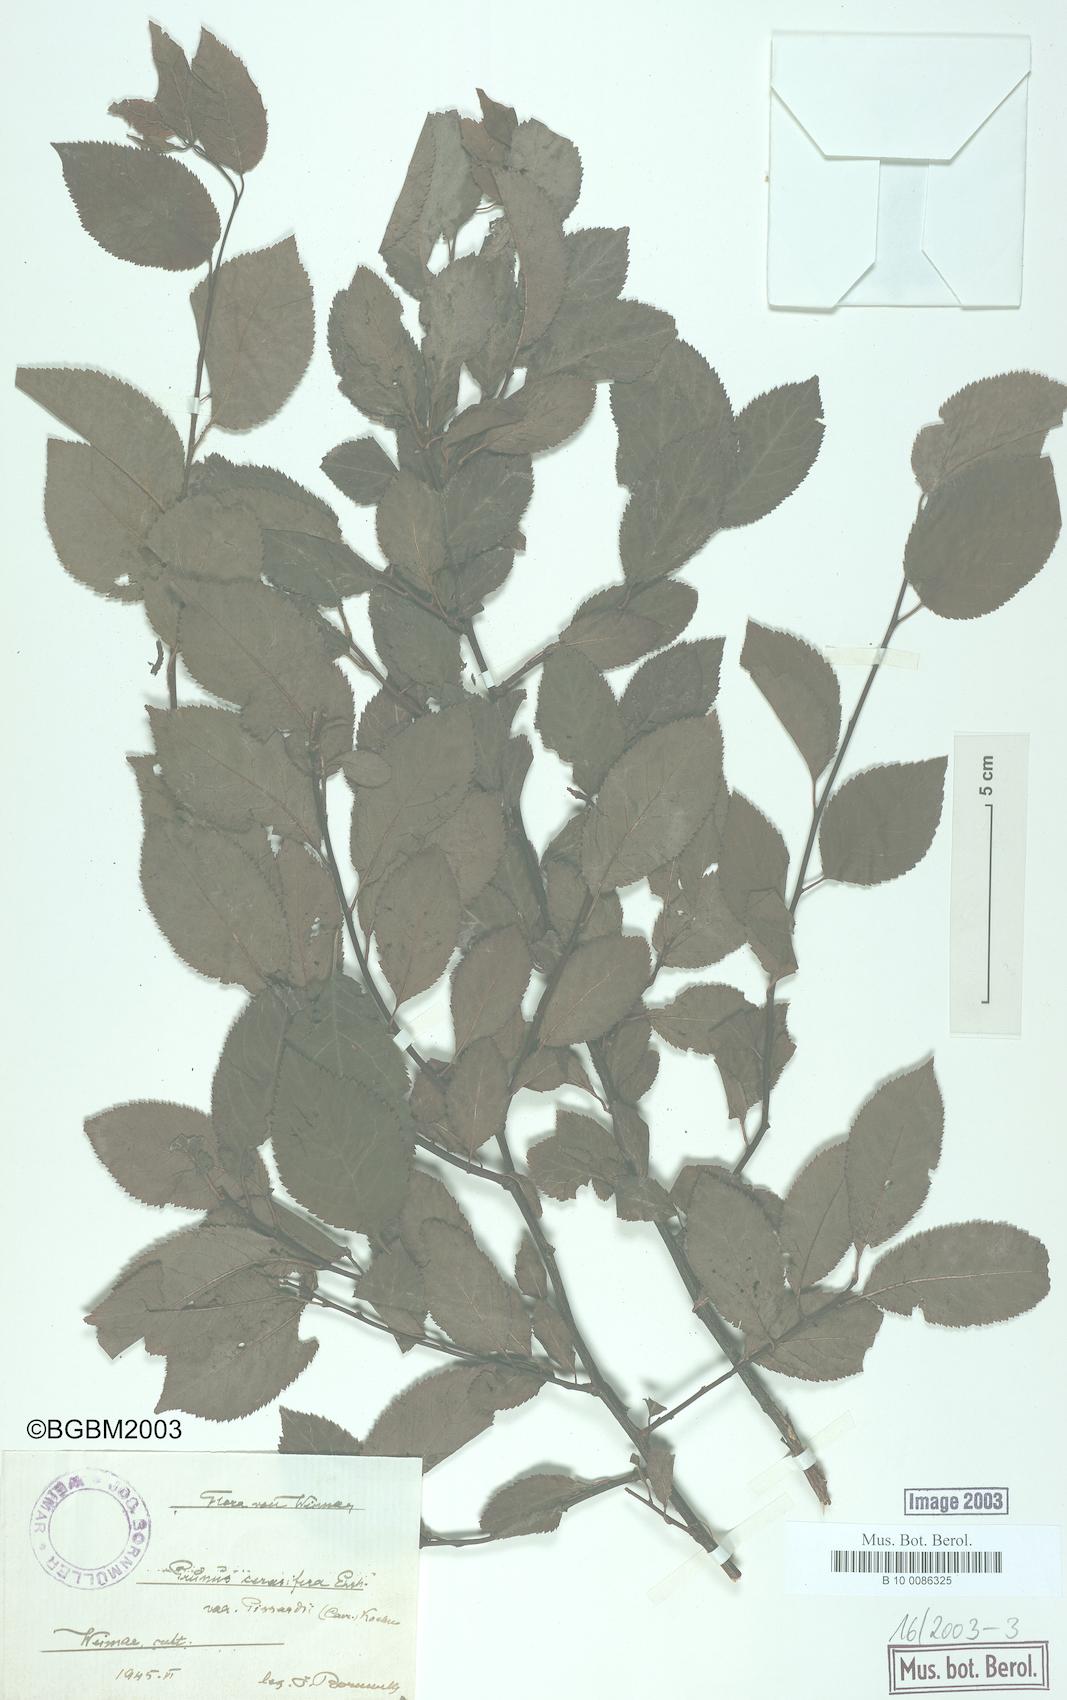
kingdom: Plantae
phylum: Tracheophyta
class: Magnoliopsida
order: Rosales
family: Rosaceae
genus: Prunus
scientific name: Prunus cerasifera
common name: Cherry plum
